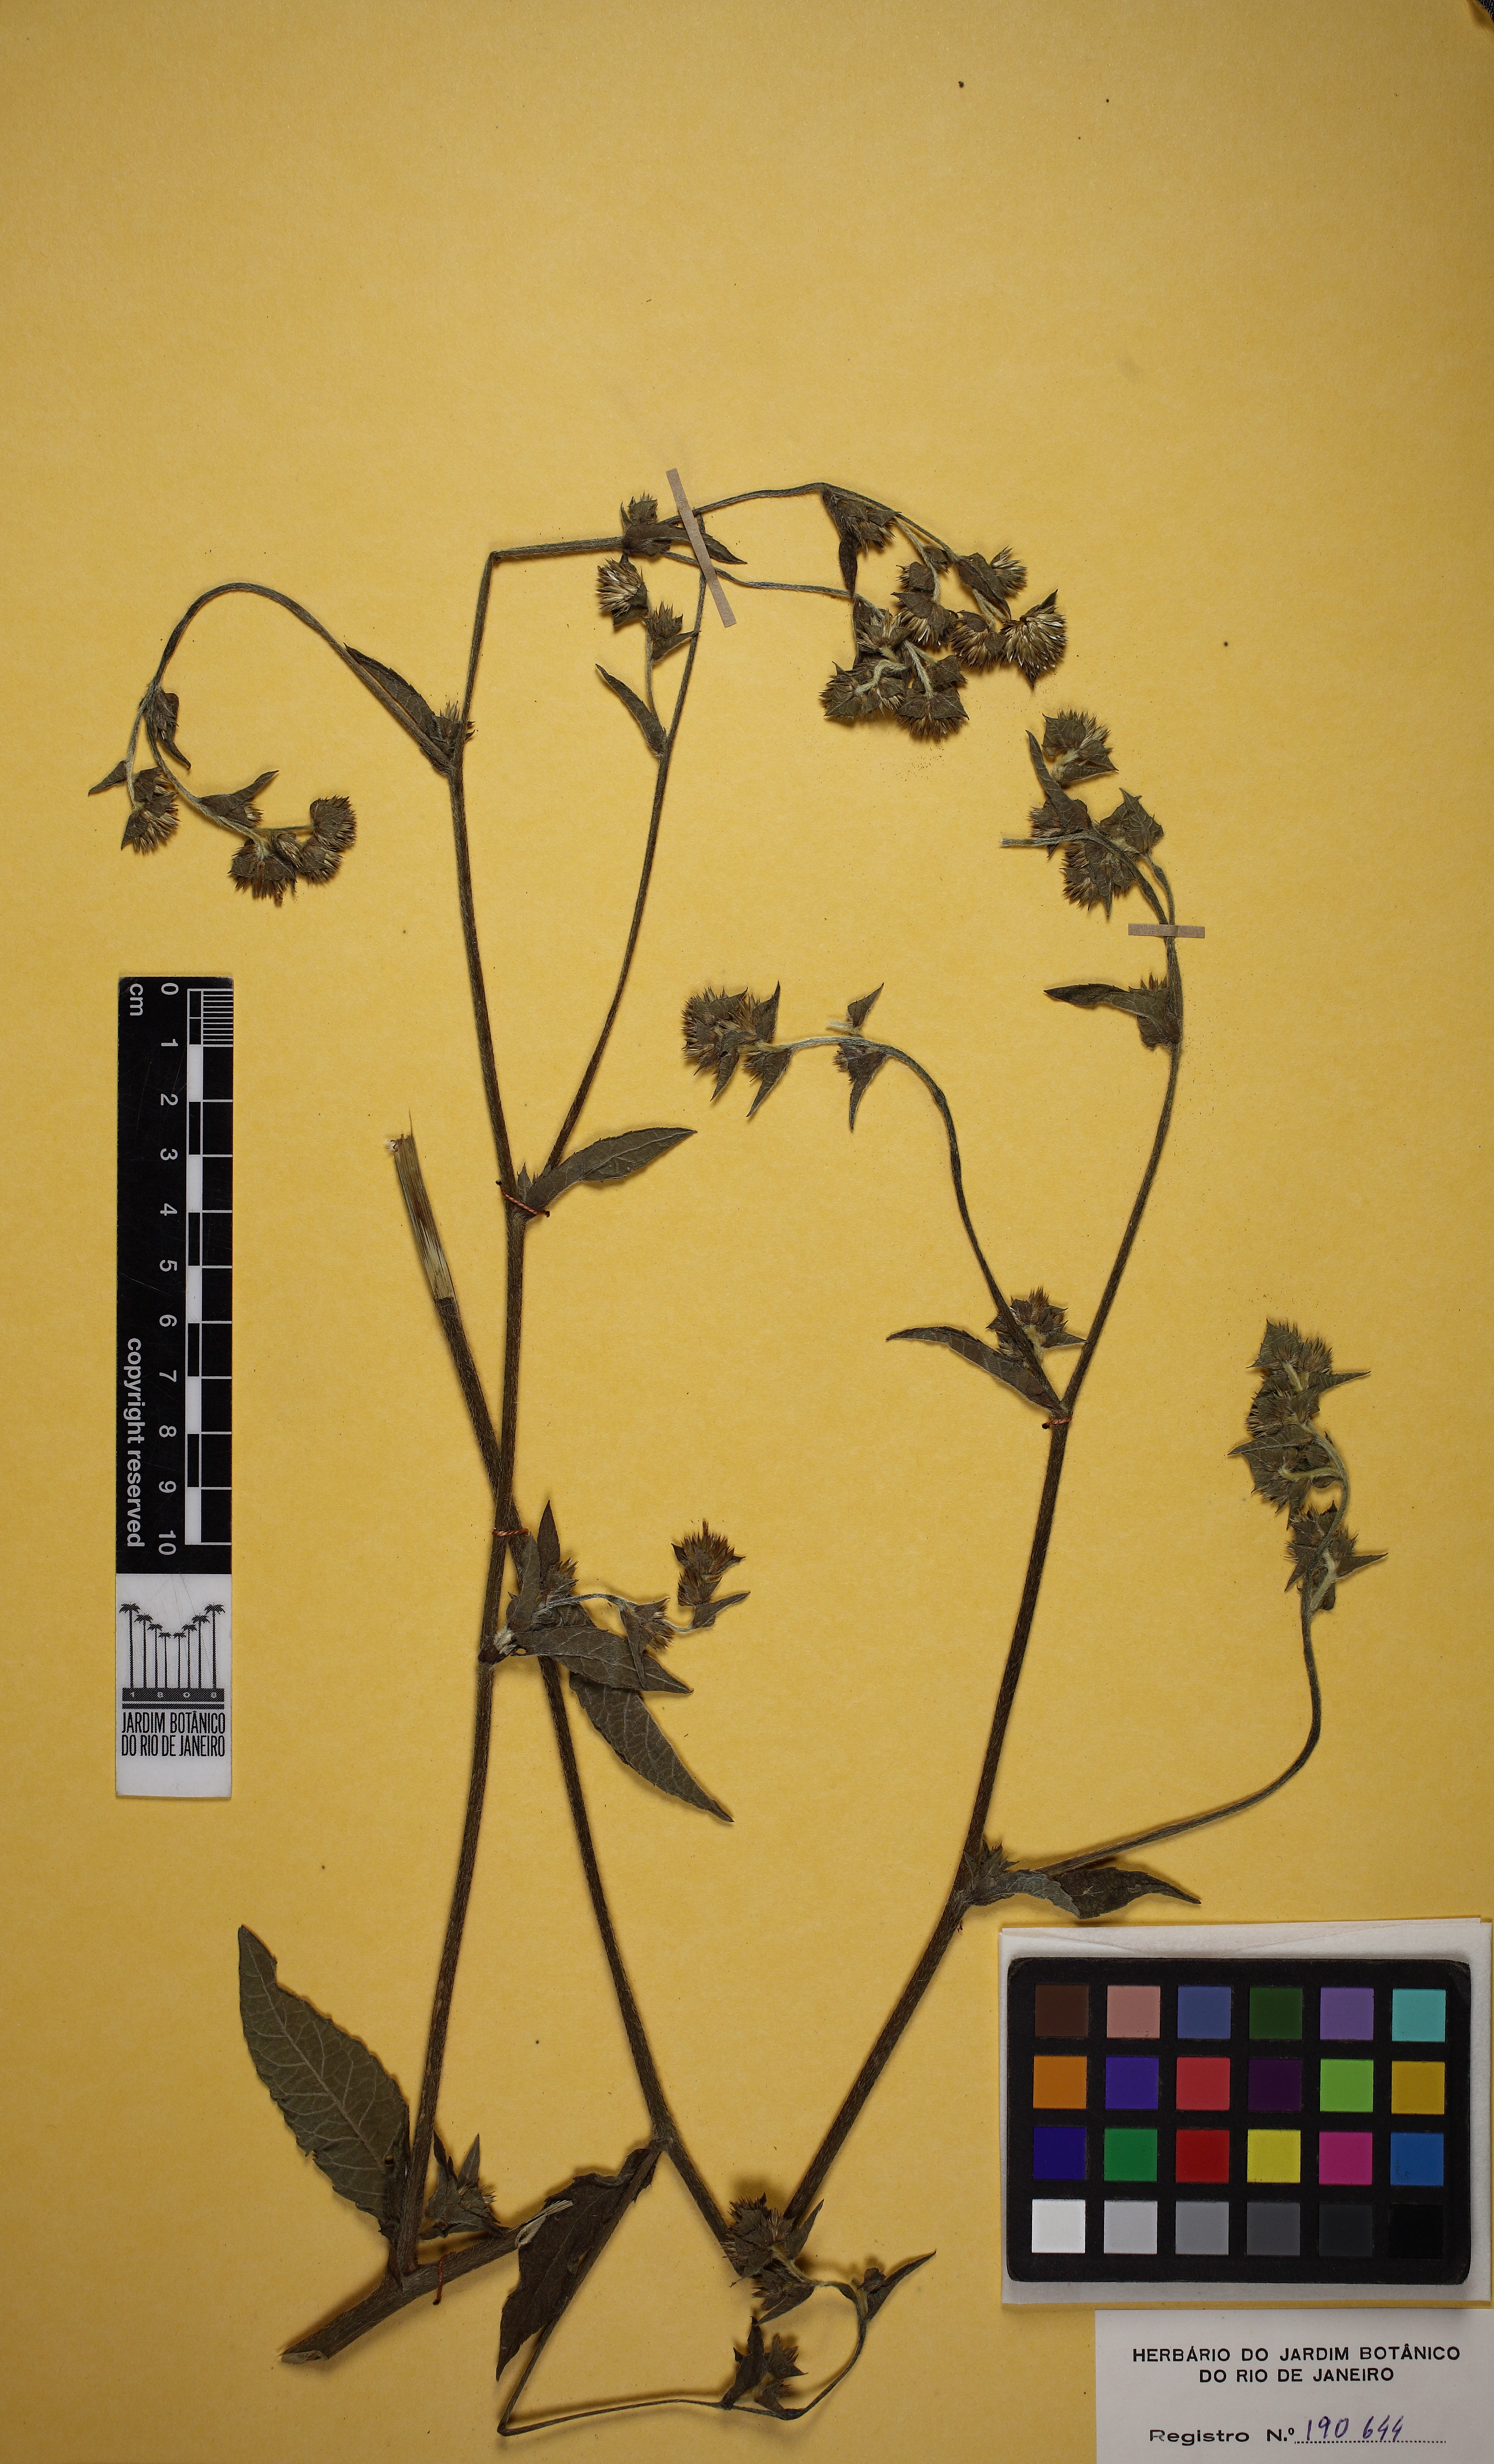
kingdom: Plantae
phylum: Tracheophyta
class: Magnoliopsida
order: Asterales
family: Asteraceae
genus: Elephantopus
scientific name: Elephantopus mollis
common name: Soft elephantsfoot
